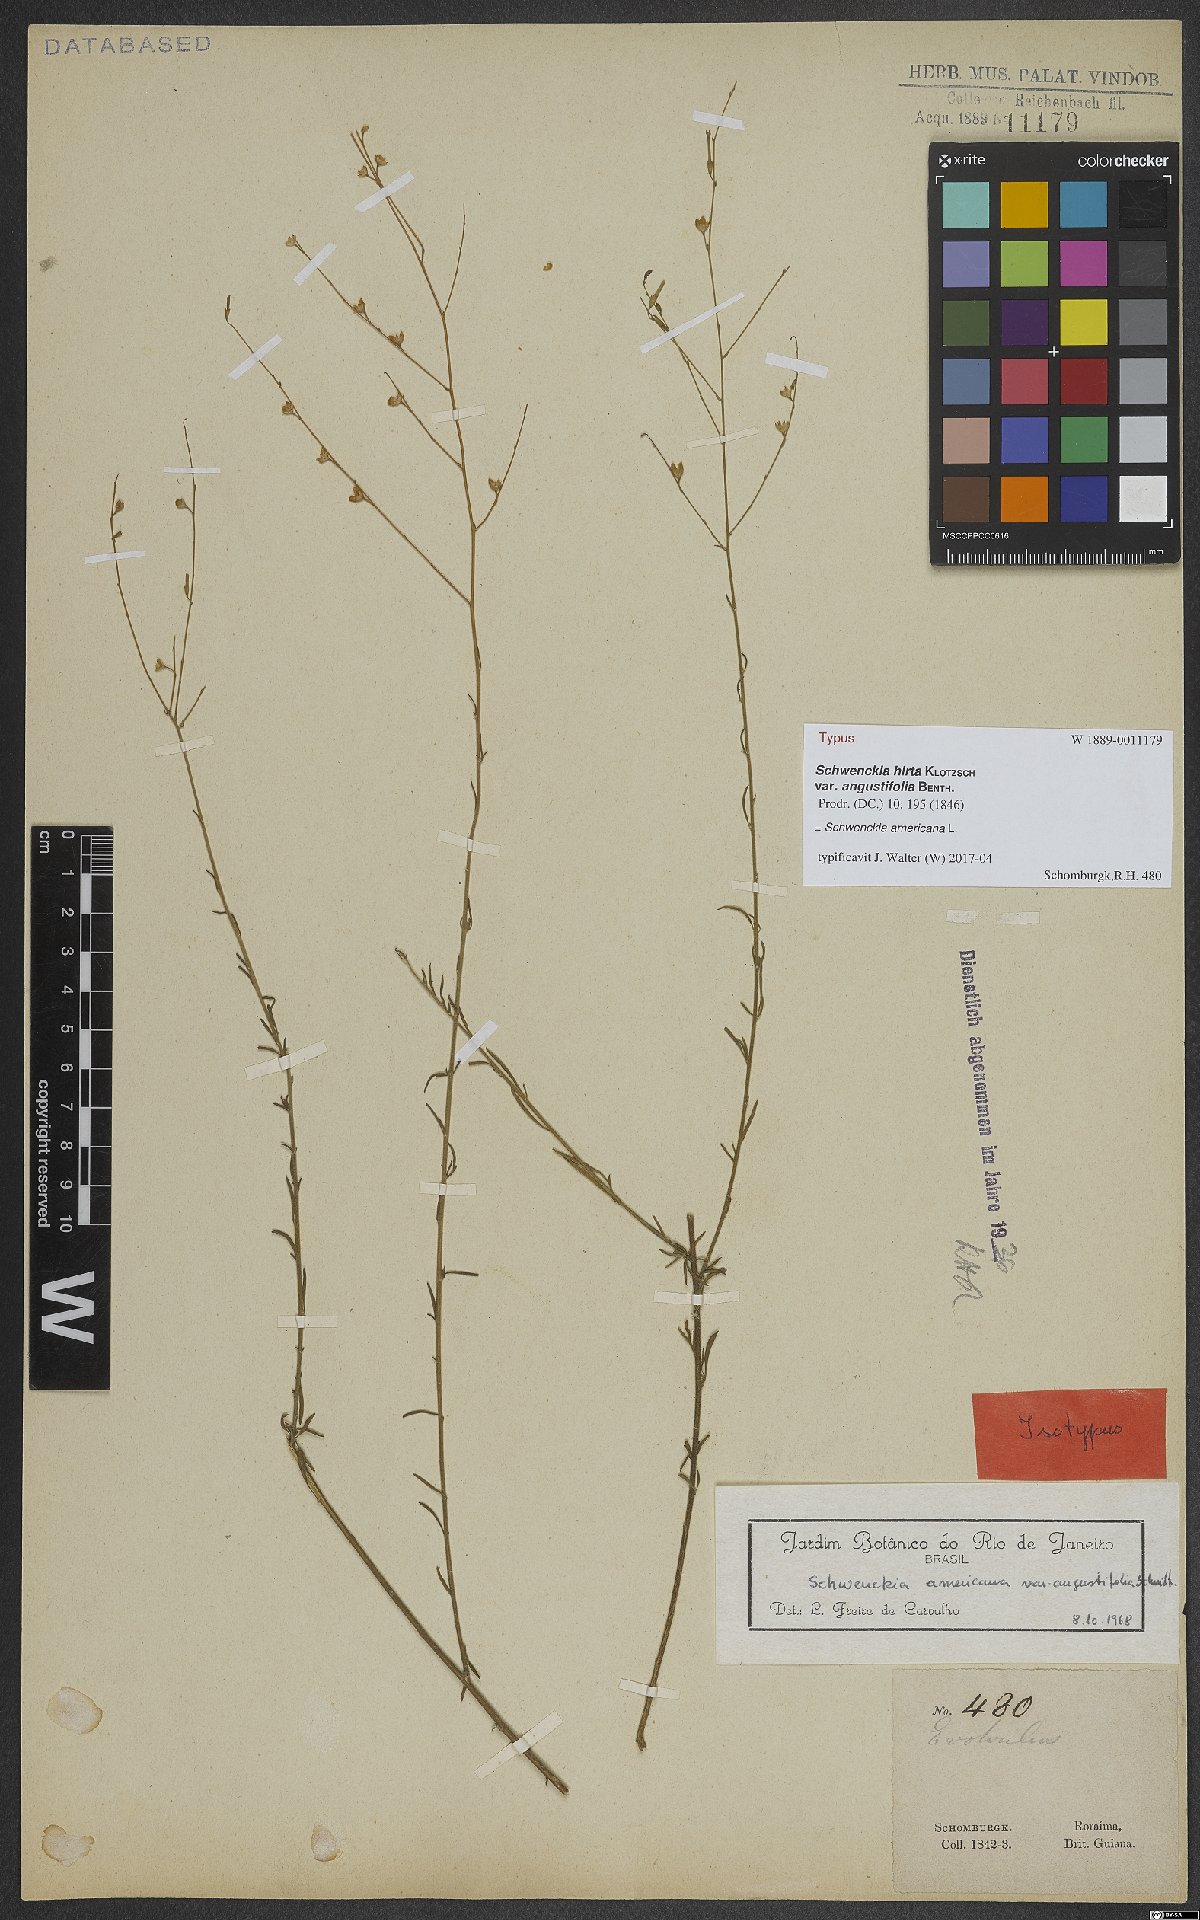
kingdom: Plantae
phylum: Tracheophyta
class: Magnoliopsida
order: Solanales
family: Solanaceae
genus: Schwenckia
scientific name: Schwenckia americana
